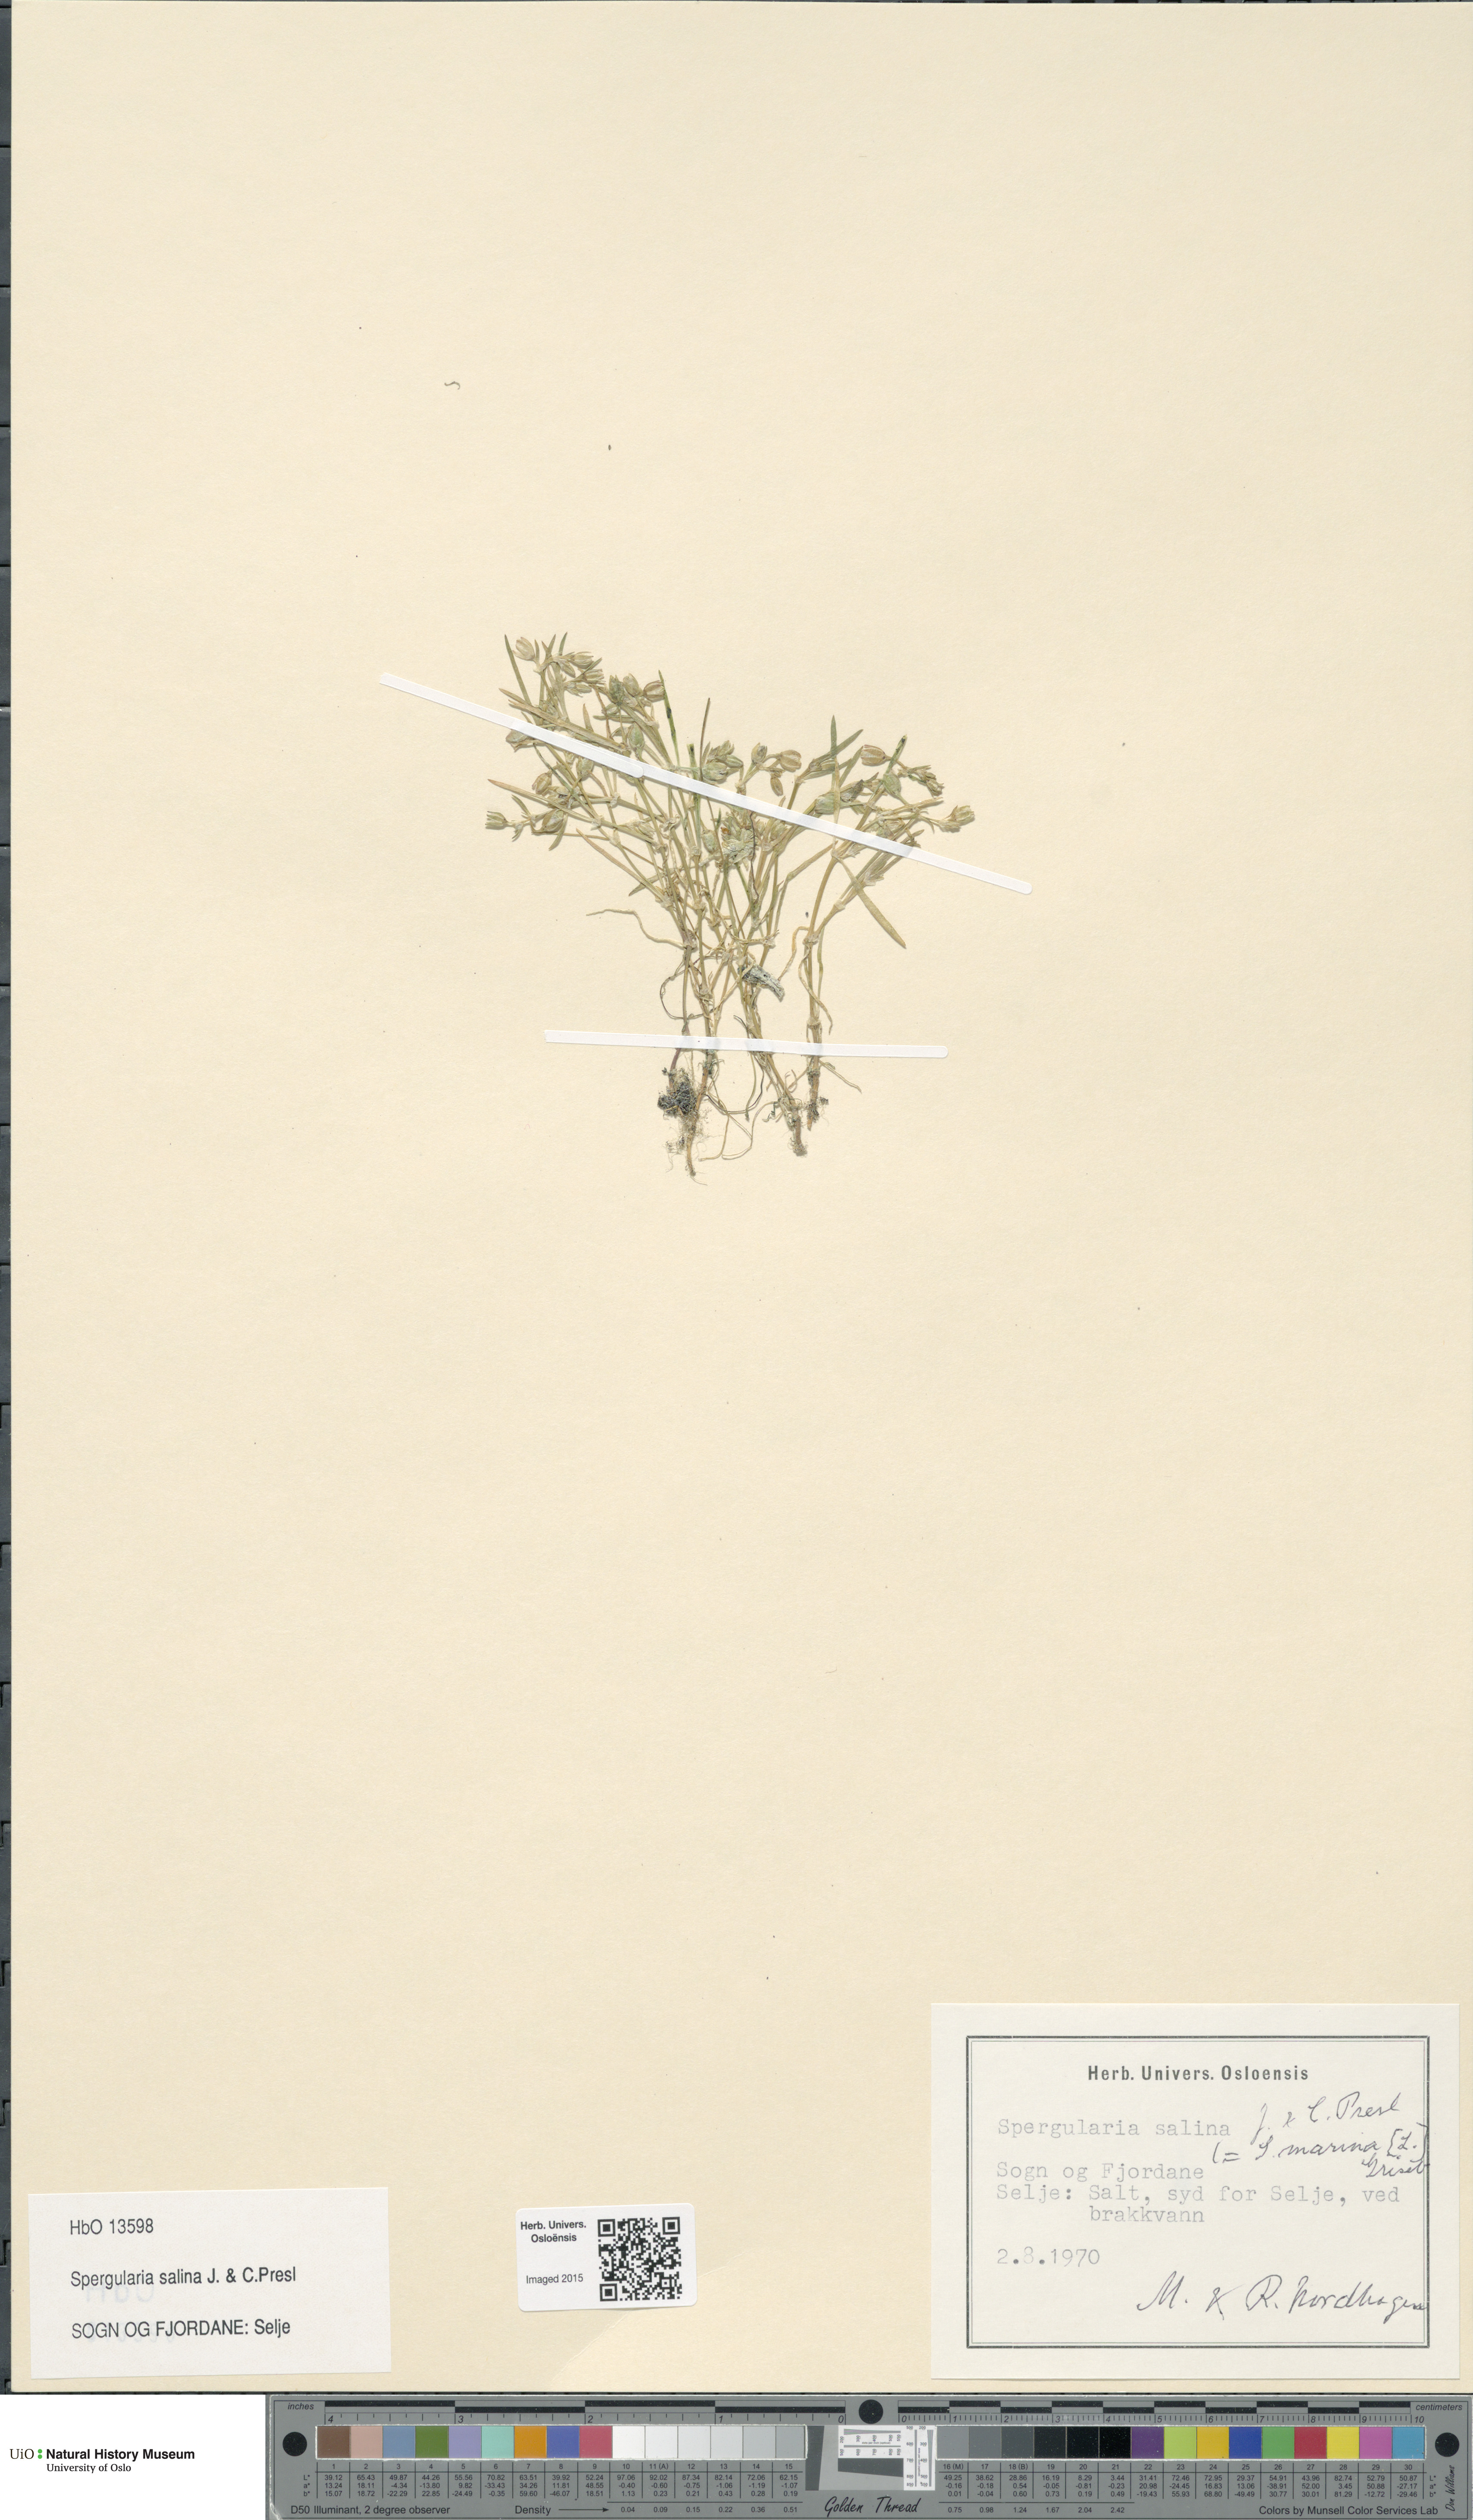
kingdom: Plantae
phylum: Tracheophyta
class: Magnoliopsida
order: Caryophyllales
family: Caryophyllaceae
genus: Spergularia
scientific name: Spergularia marina
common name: Lesser sea-spurrey
